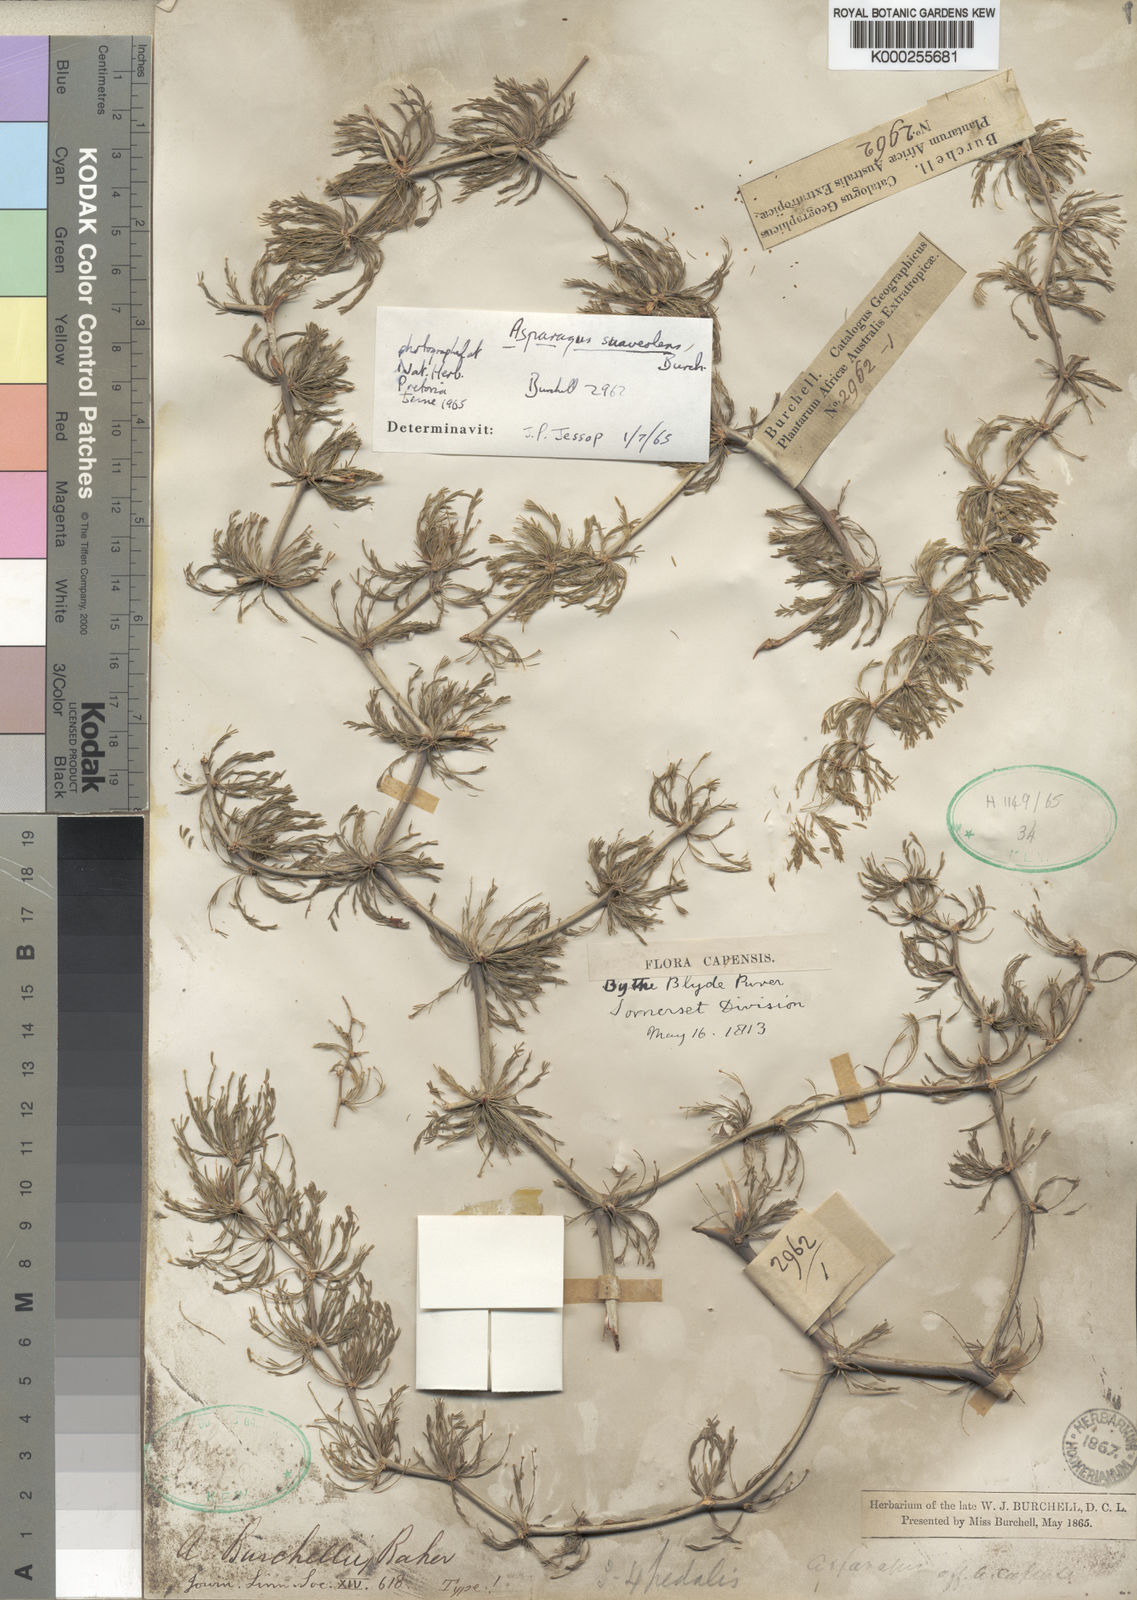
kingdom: Plantae
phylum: Tracheophyta
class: Liliopsida
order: Asparagales
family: Asparagaceae
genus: Asparagus
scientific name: Asparagus suaveolens
